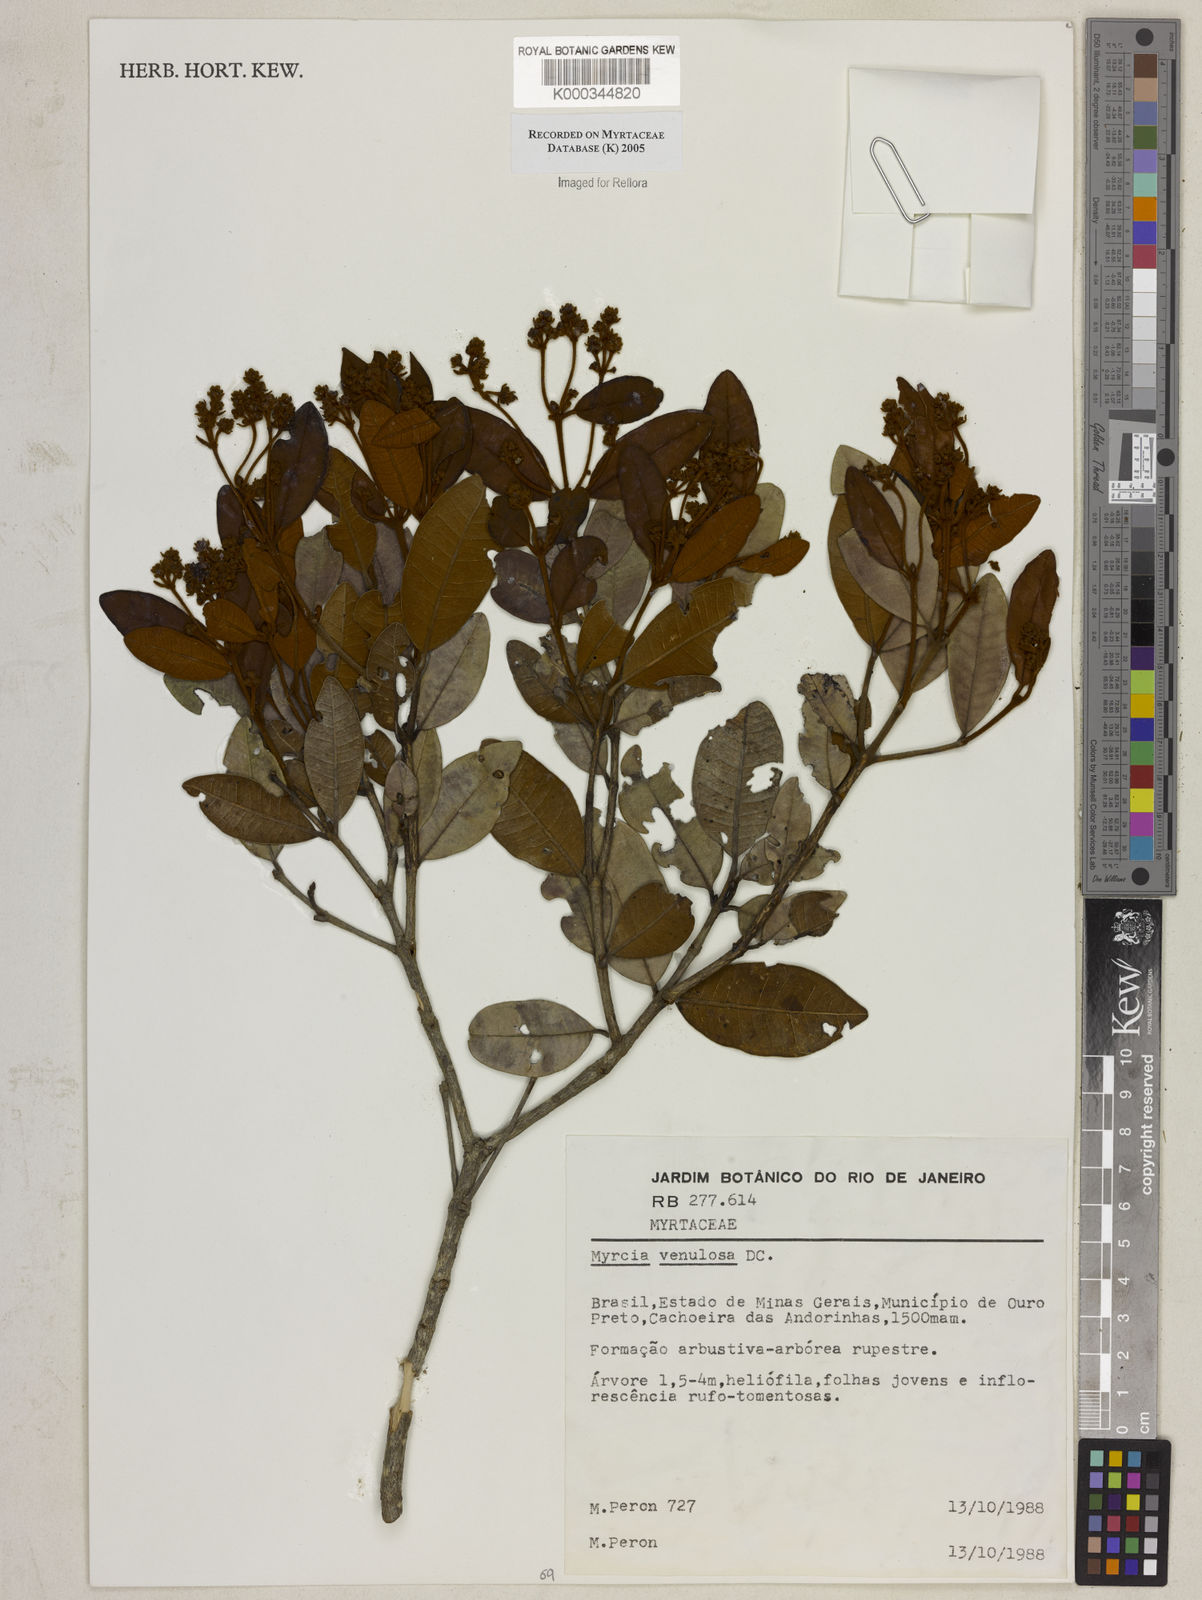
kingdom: Plantae
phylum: Tracheophyta
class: Magnoliopsida
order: Myrtales
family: Myrtaceae
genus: Myrcia
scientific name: Myrcia venulosa
